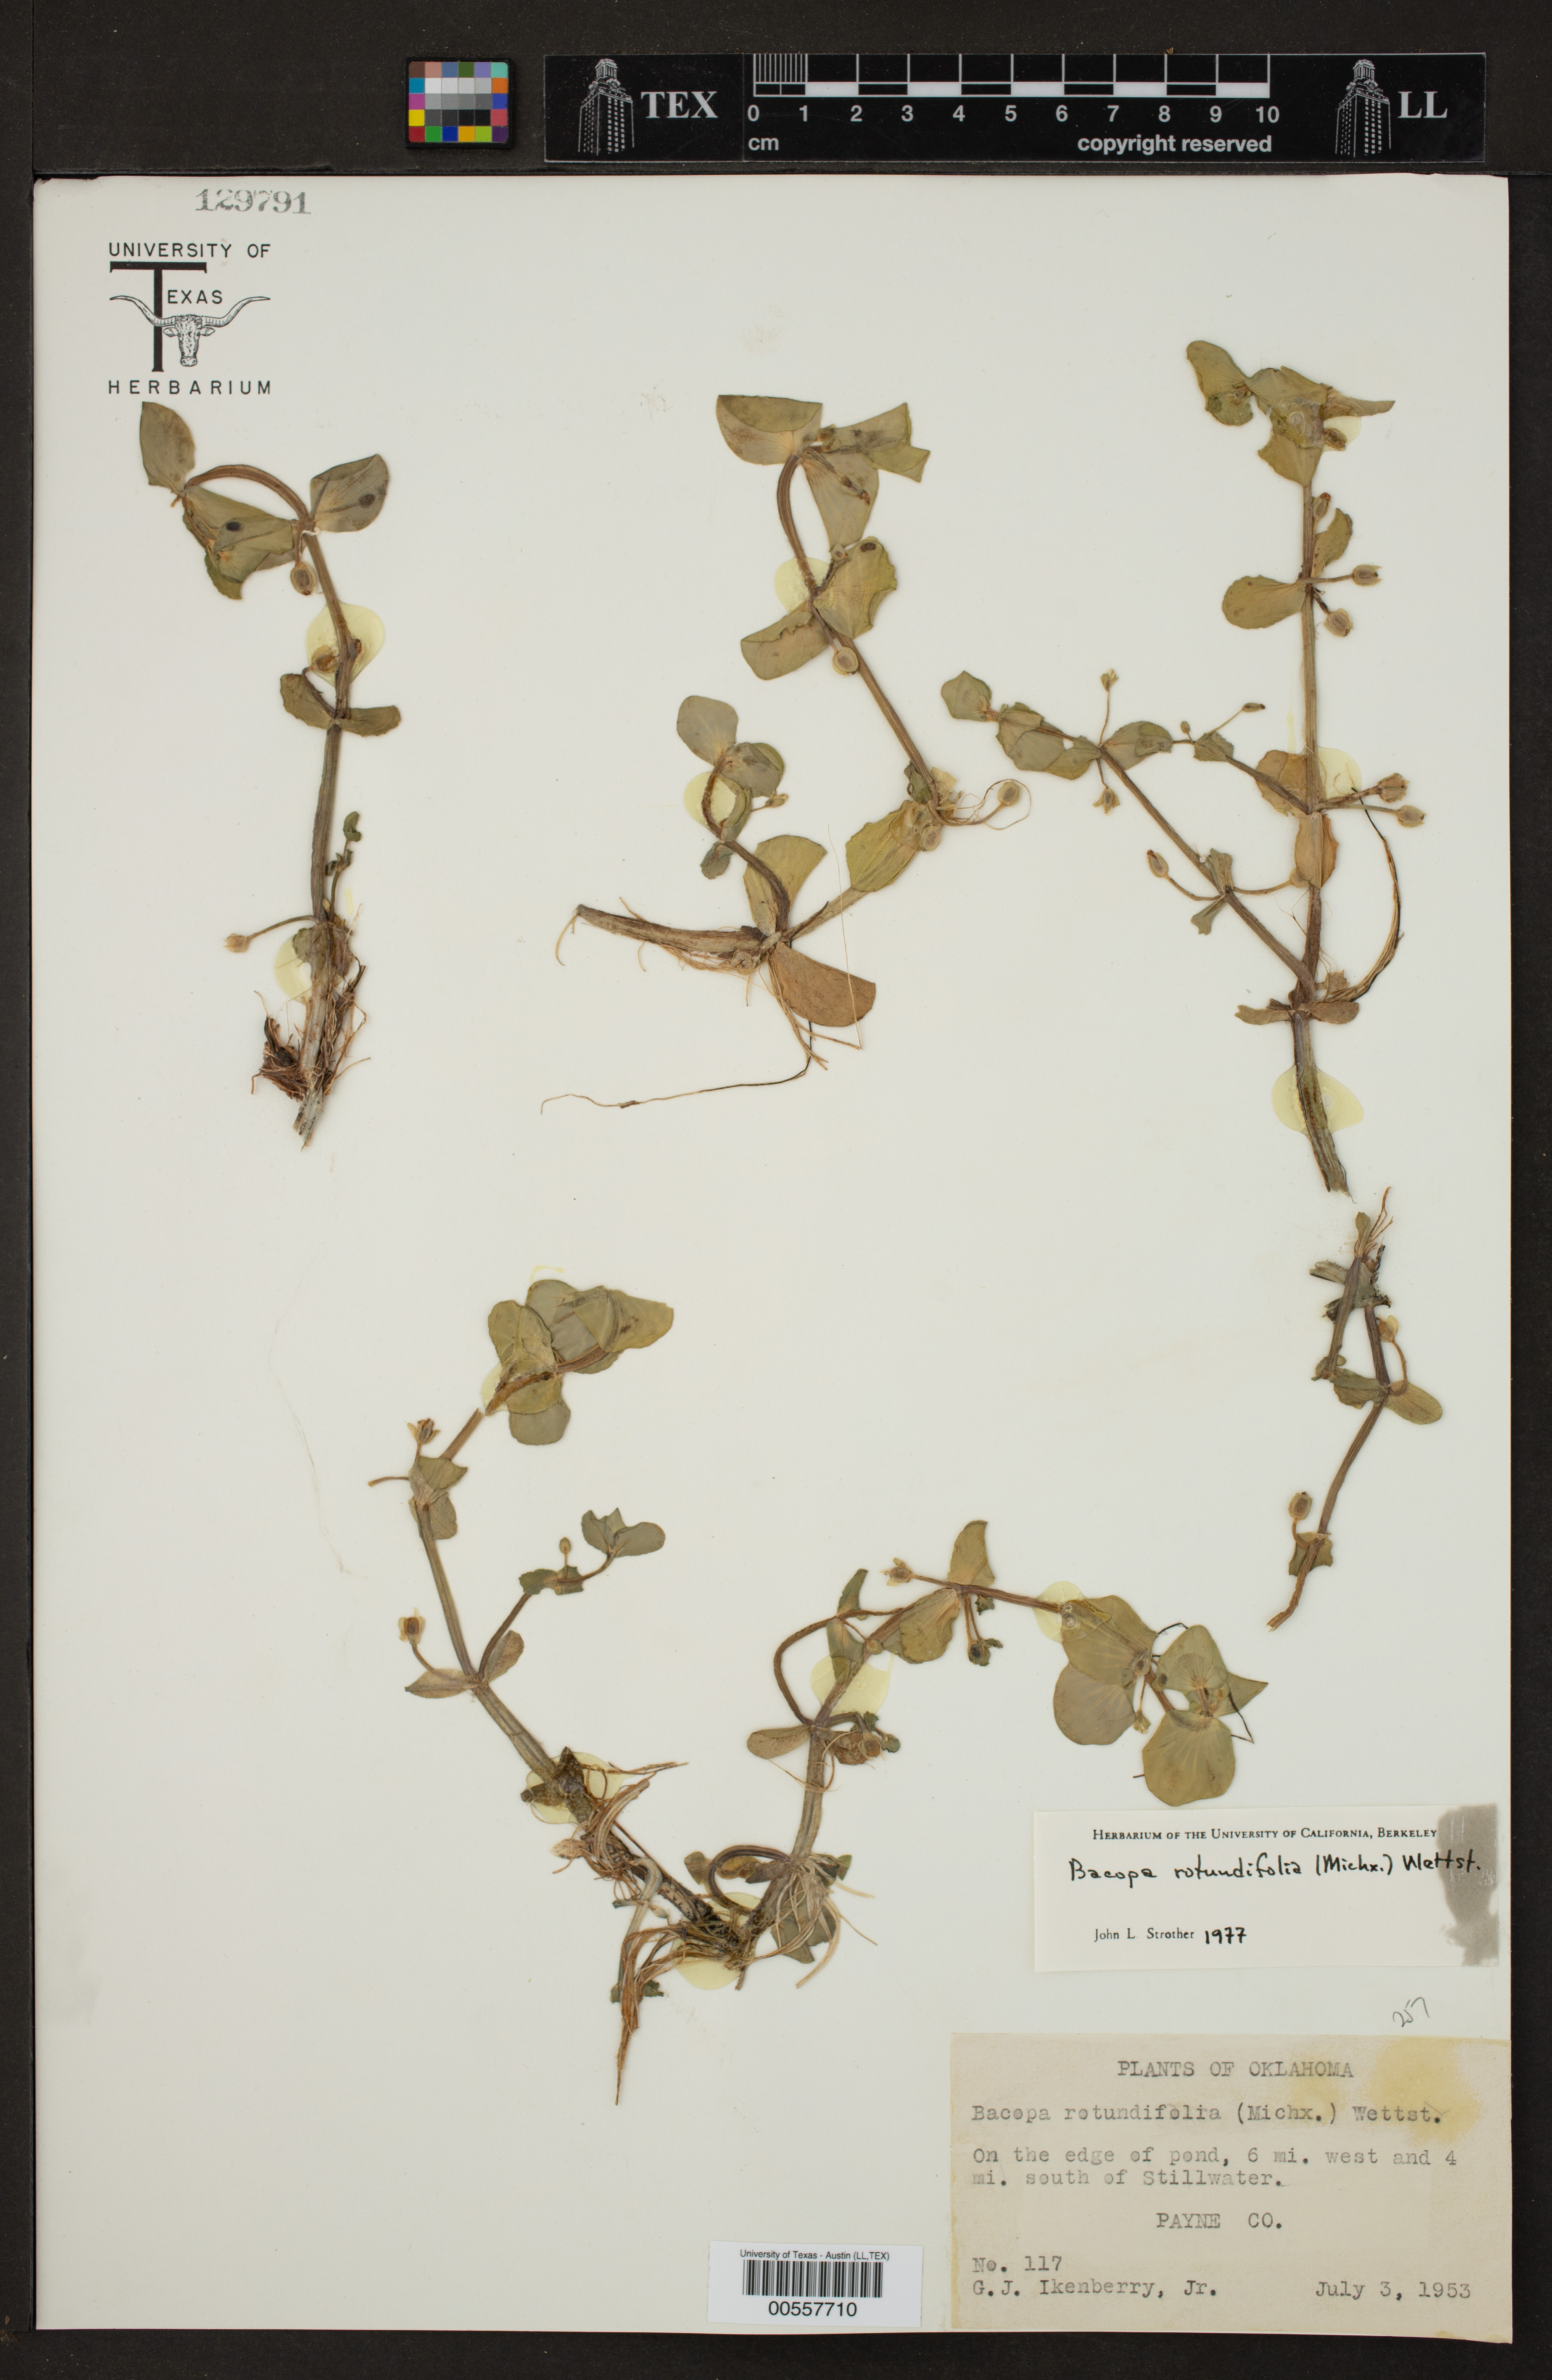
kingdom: Plantae
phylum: Tracheophyta
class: Magnoliopsida
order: Lamiales
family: Plantaginaceae
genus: Bacopa
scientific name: Bacopa rotundifolia
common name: Disc water hyssop
